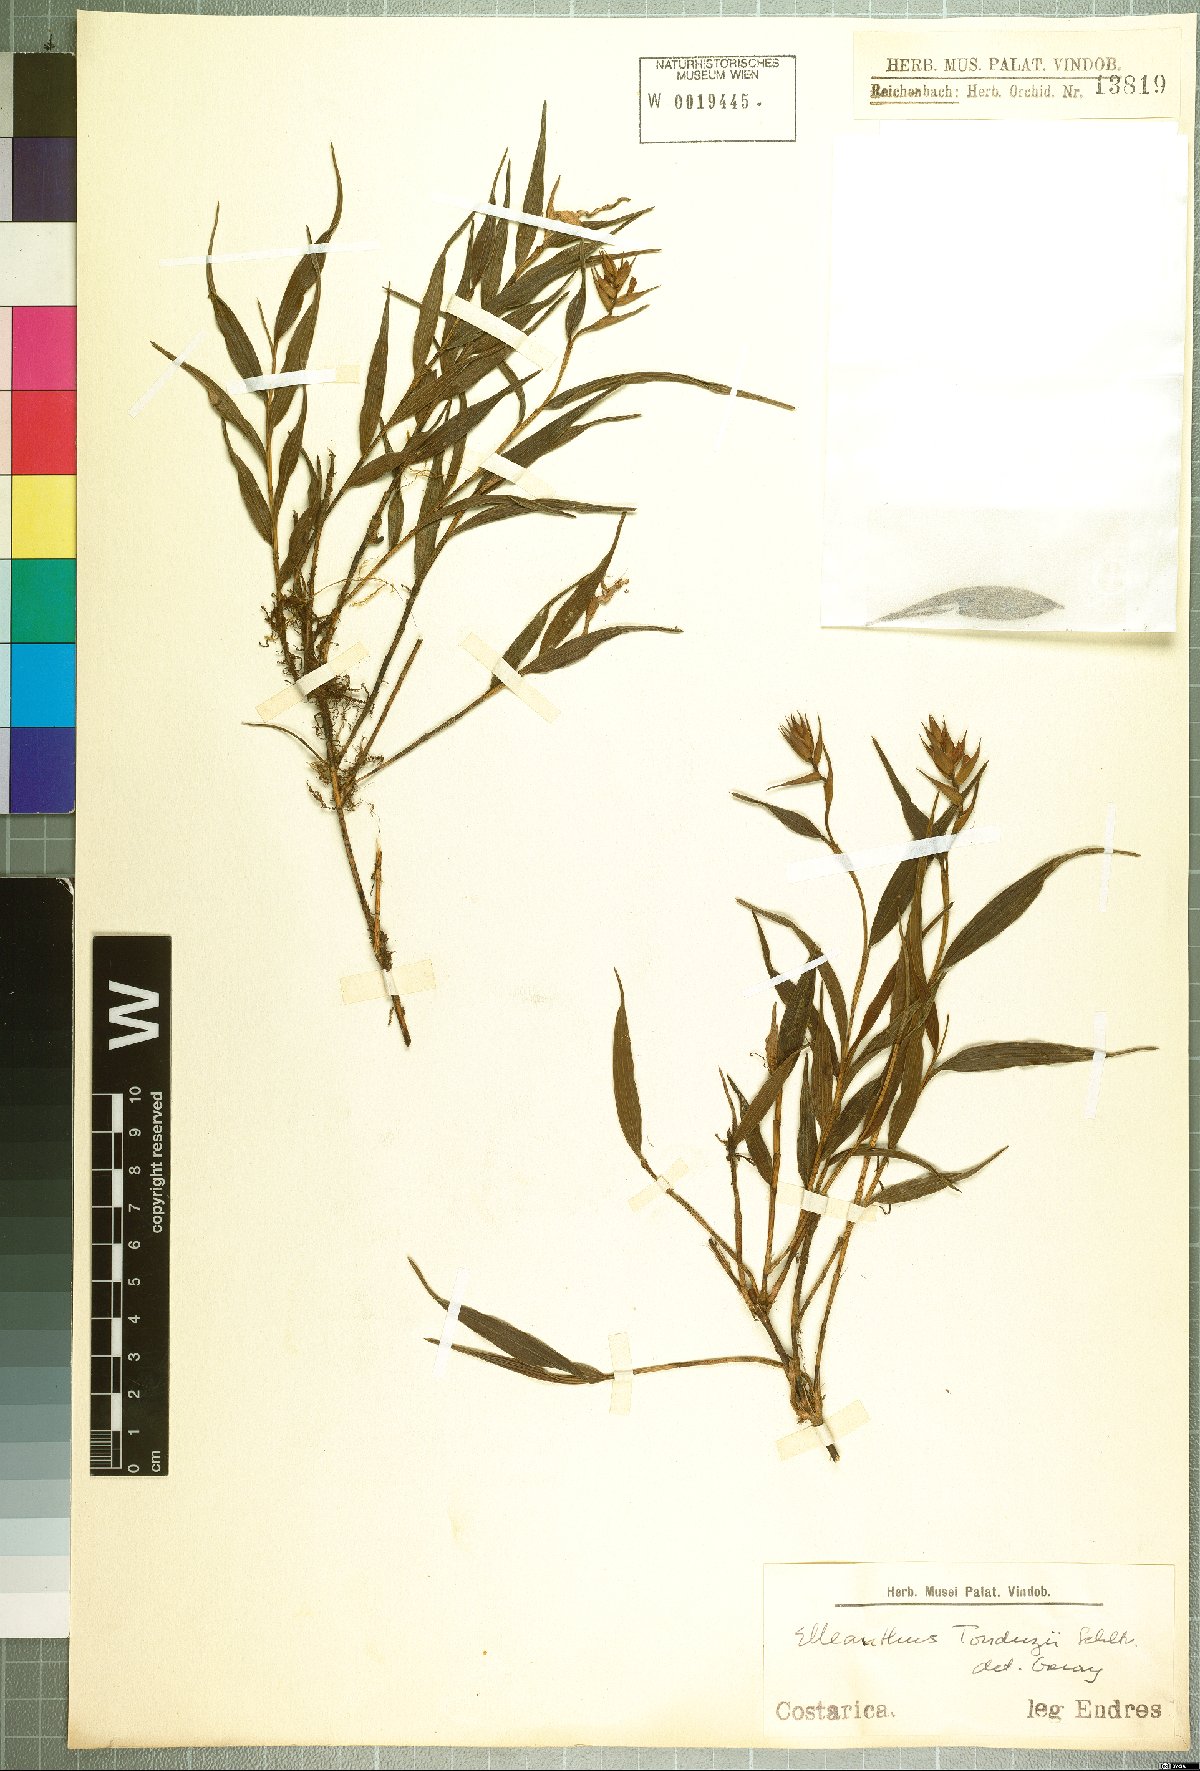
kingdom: Plantae
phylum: Tracheophyta
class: Liliopsida
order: Asparagales
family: Orchidaceae
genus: Elleanthus
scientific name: Elleanthus tonduzii
